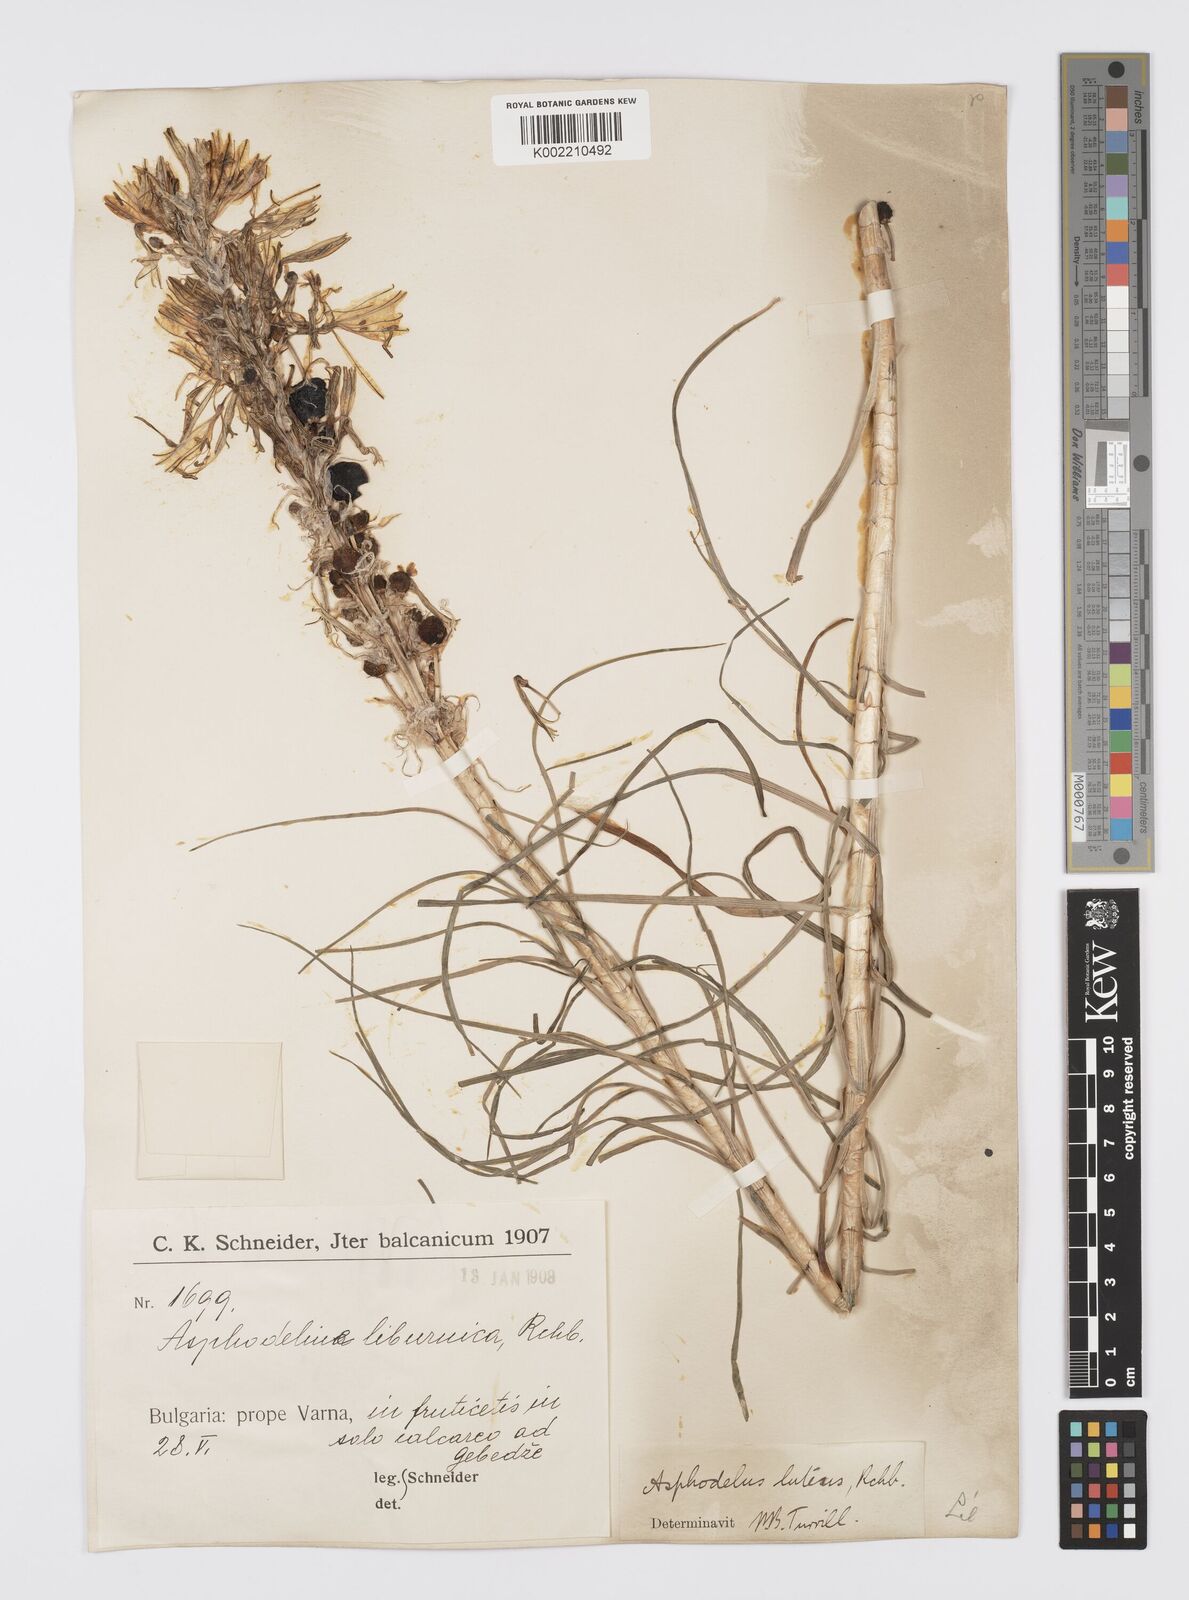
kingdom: Plantae
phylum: Tracheophyta
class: Liliopsida
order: Asparagales
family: Asphodelaceae
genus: Asphodeline
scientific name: Asphodeline lutea
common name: Yellow asphodel
